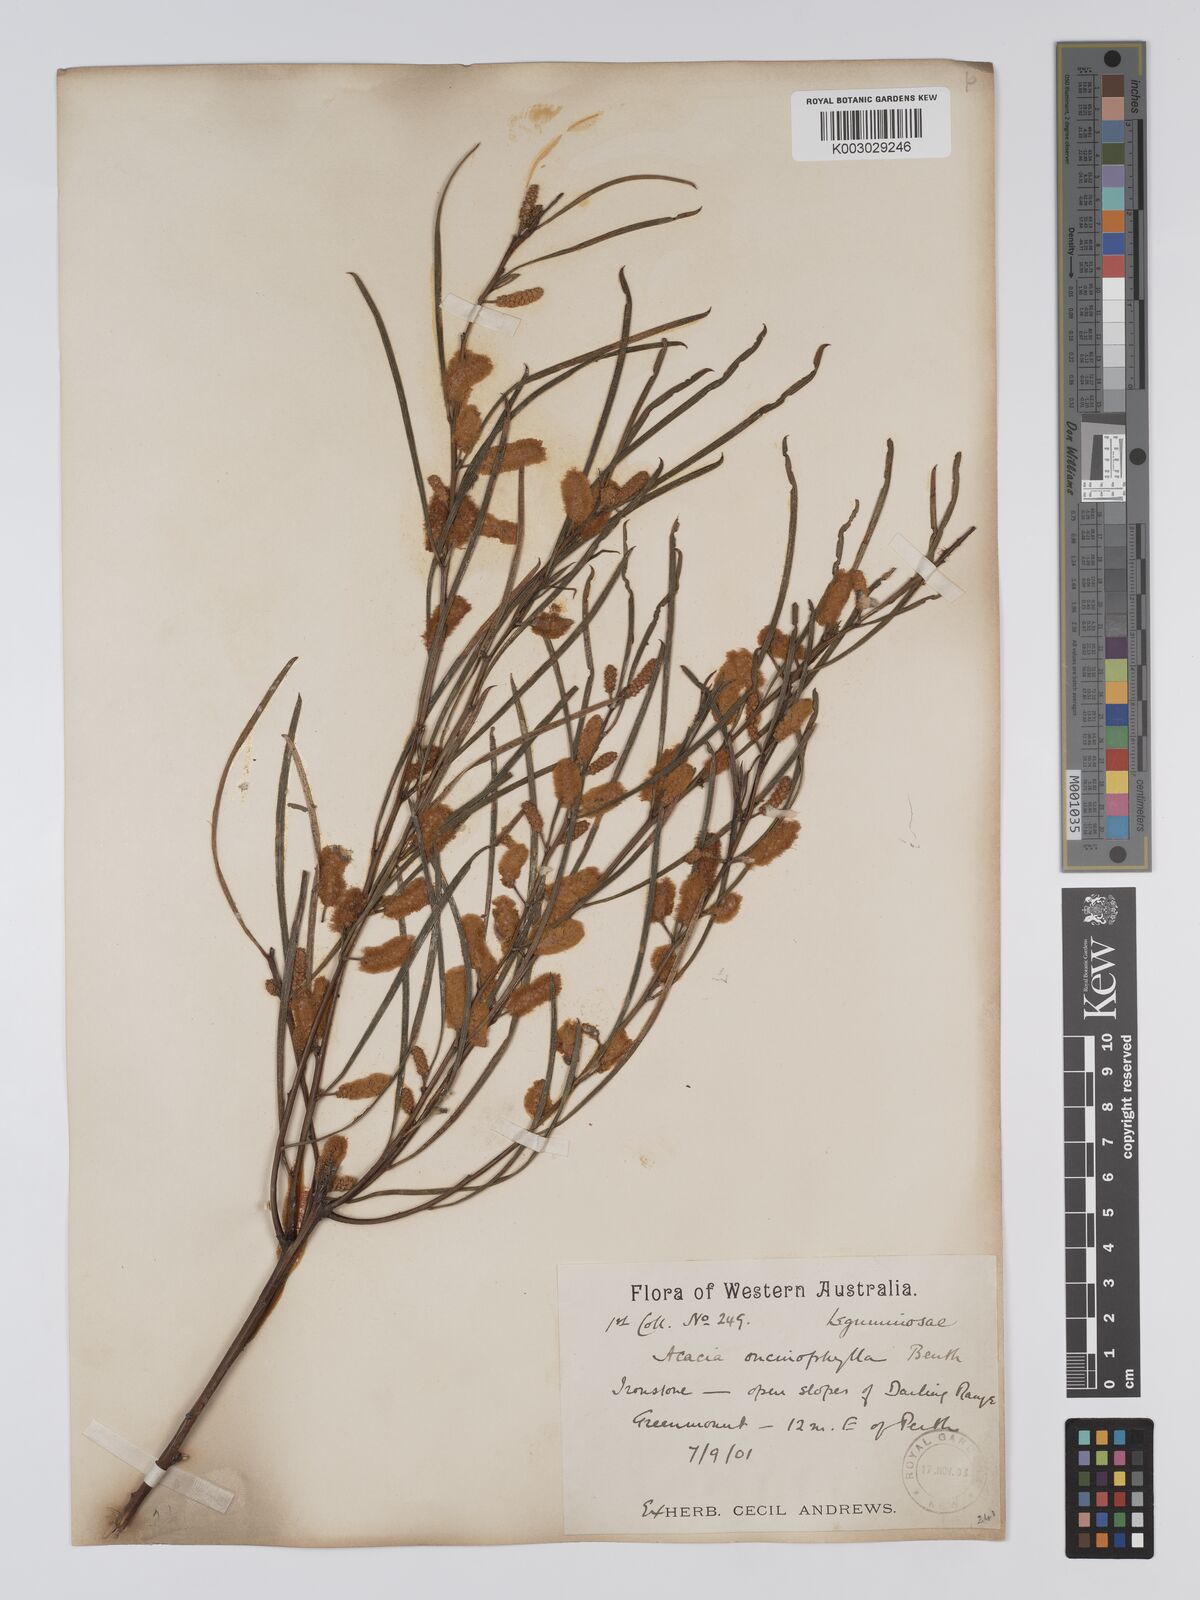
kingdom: Plantae
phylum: Tracheophyta
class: Magnoliopsida
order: Fabales
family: Fabaceae
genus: Acacia
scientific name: Acacia oncinophylla
